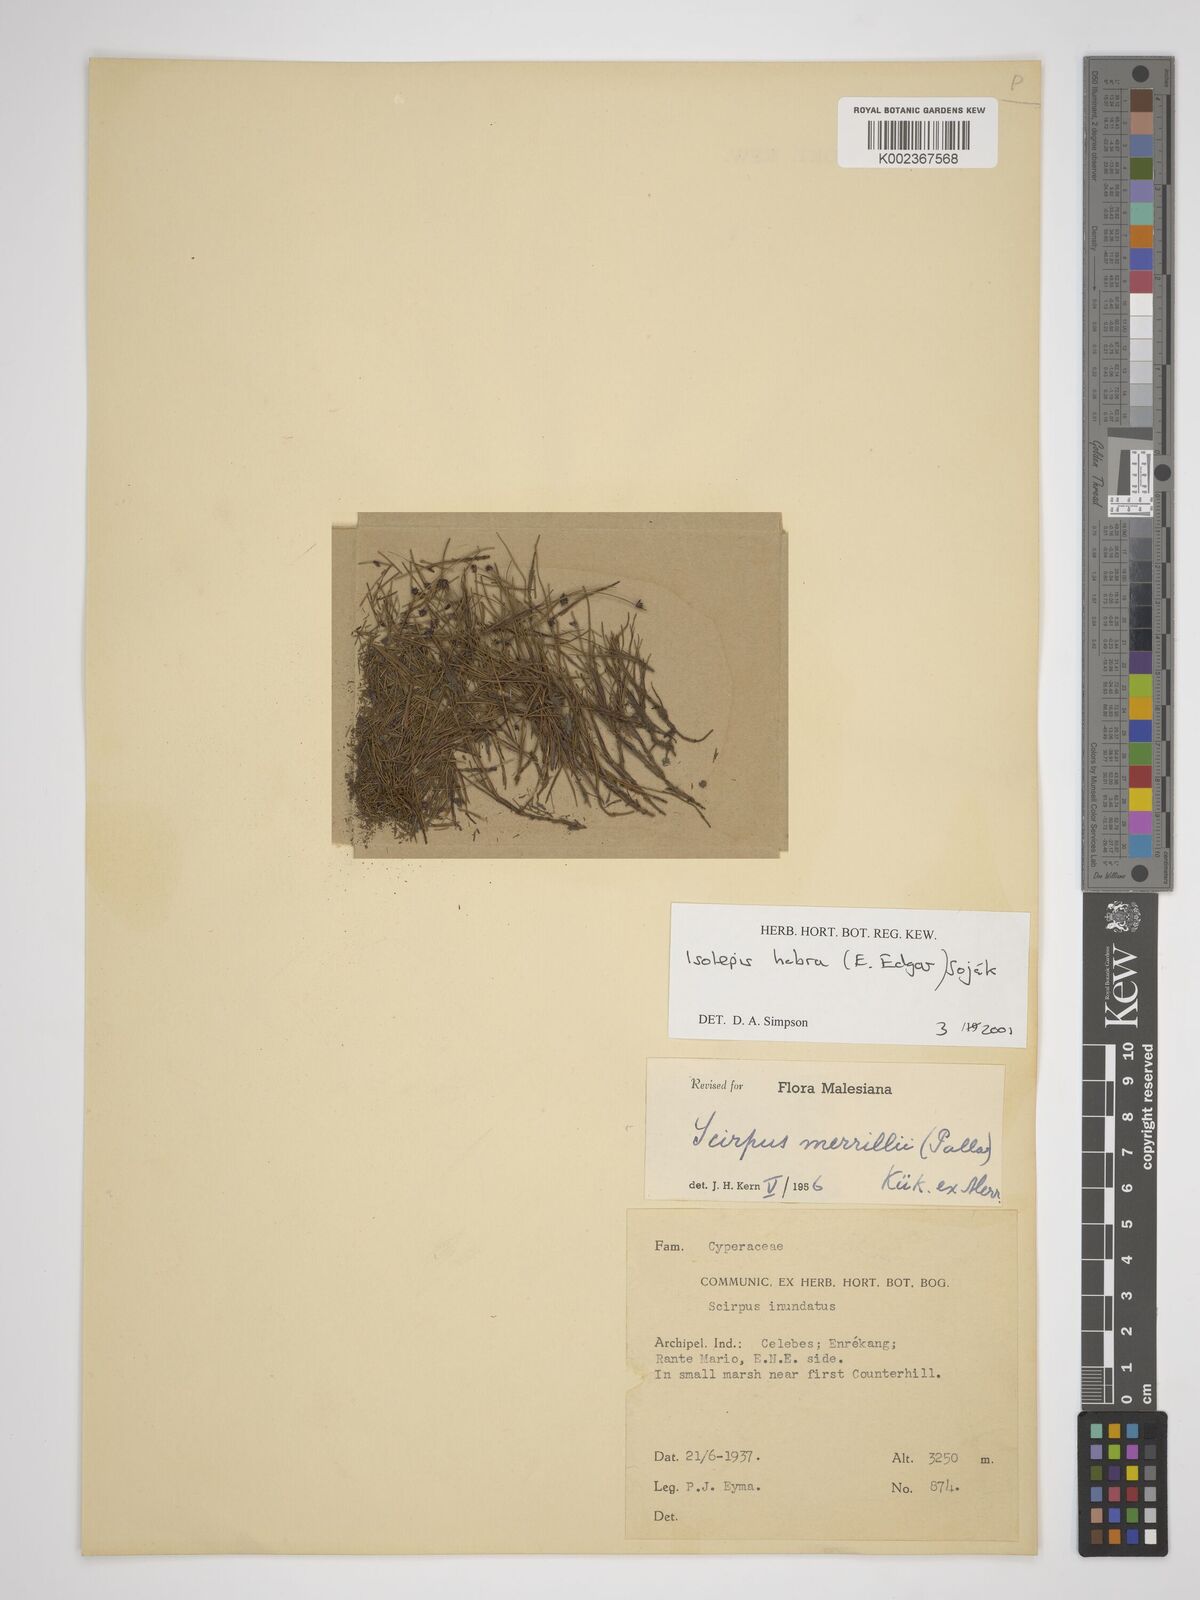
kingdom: Plantae
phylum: Tracheophyta
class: Liliopsida
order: Poales
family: Cyperaceae
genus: Isolepis
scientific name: Isolepis habra
